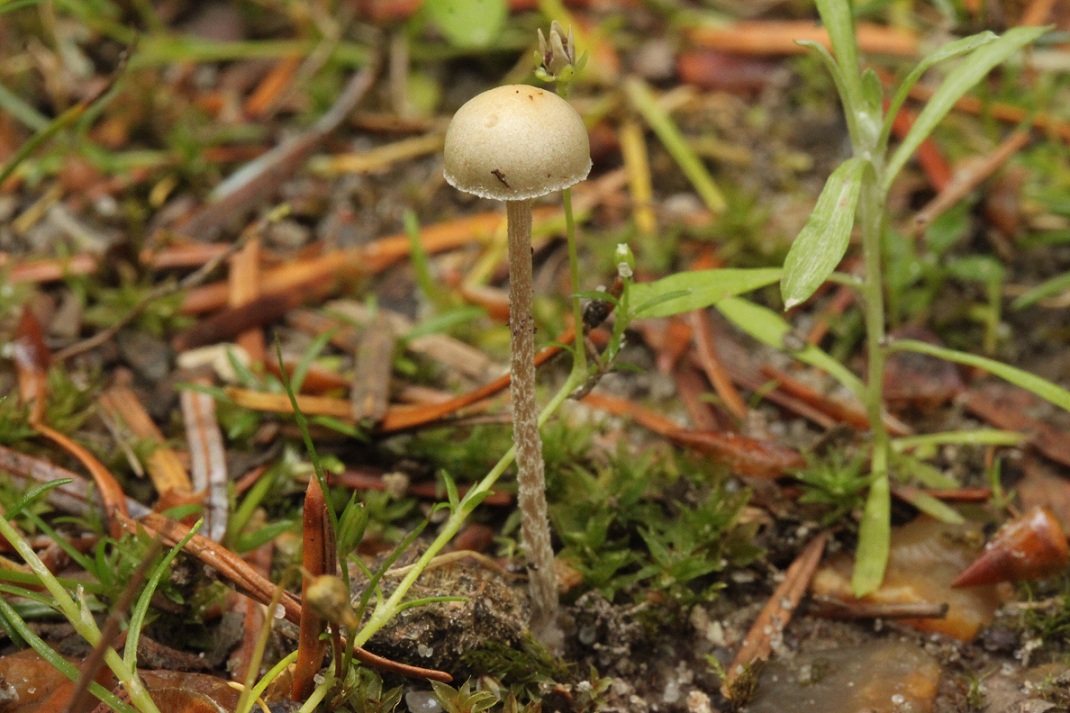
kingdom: Fungi
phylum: Basidiomycota
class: Agaricomycetes
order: Agaricales
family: Strophariaceae
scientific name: Strophariaceae
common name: bredbladfamilien
